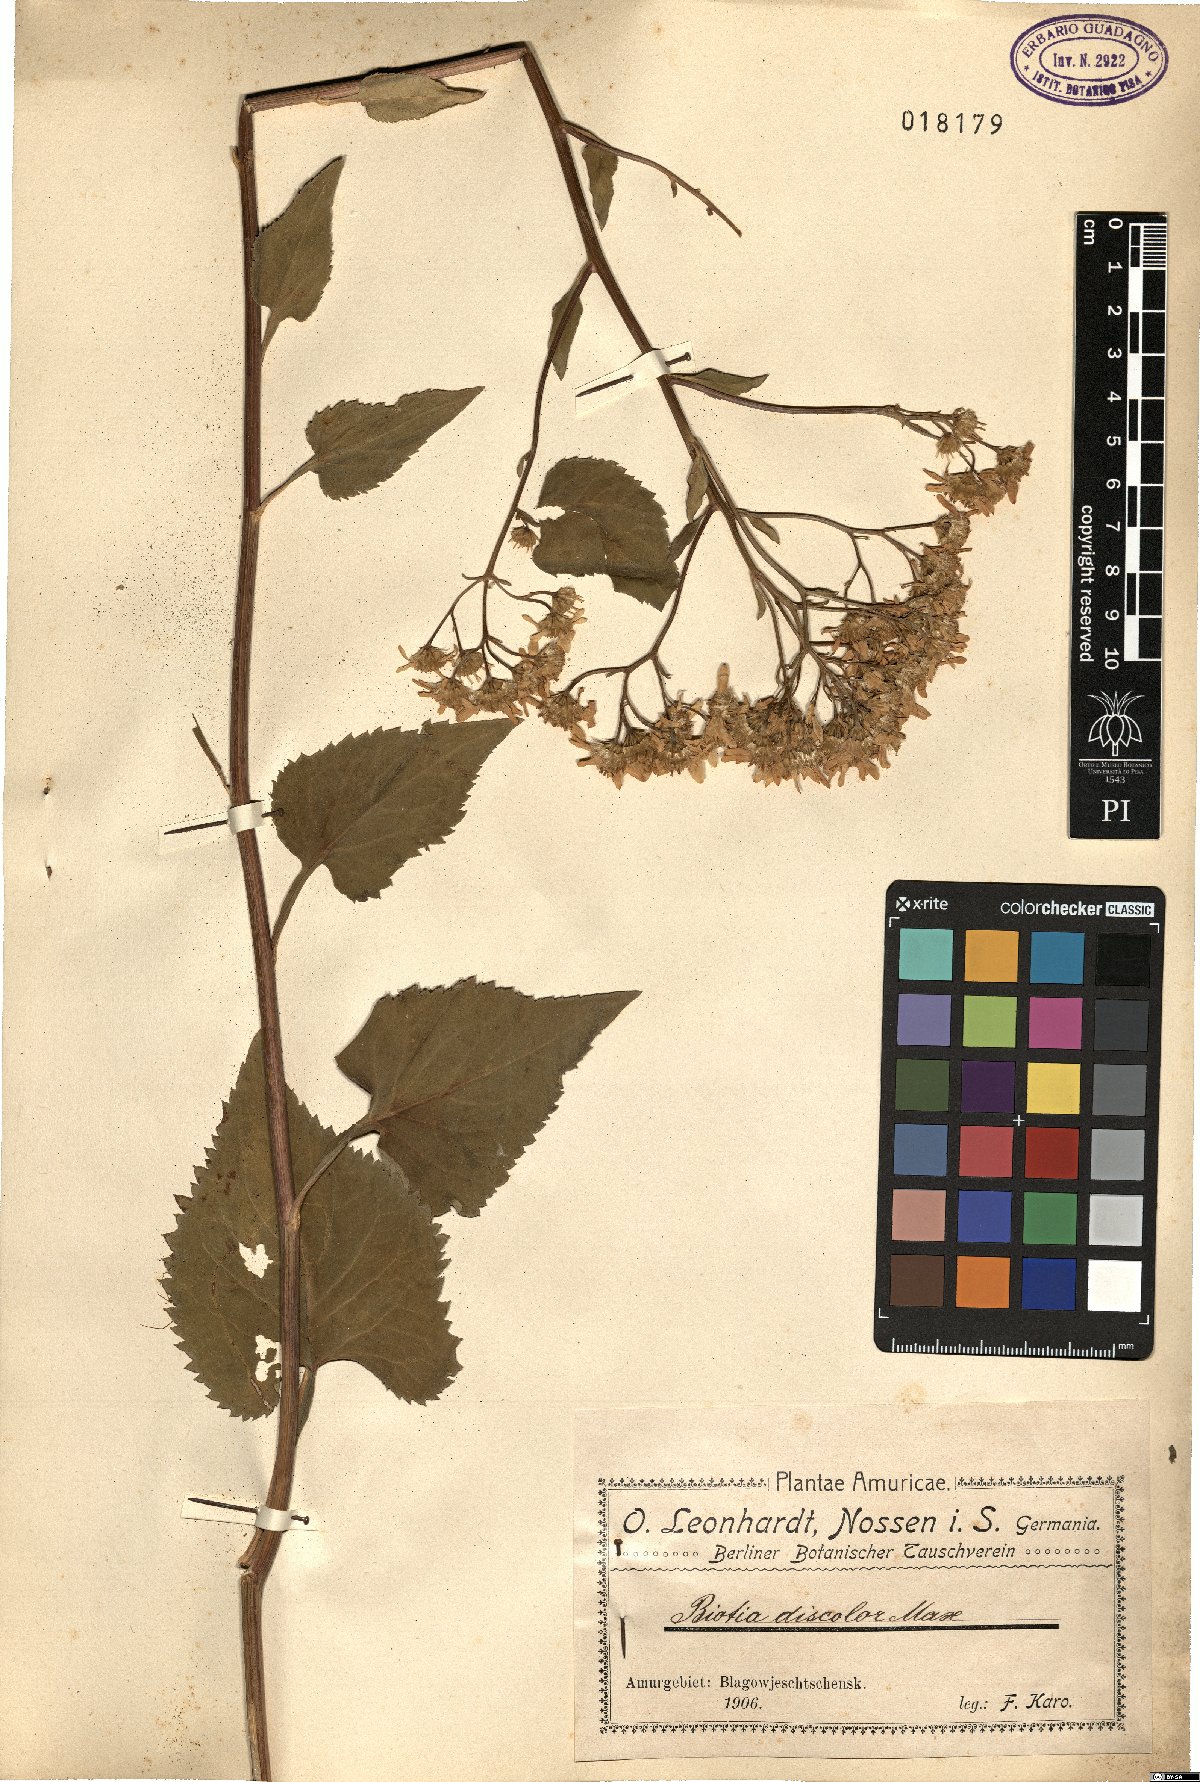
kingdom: Plantae
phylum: Tracheophyta
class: Magnoliopsida
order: Asterales
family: Asteraceae
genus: Cardiagyris
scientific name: Cardiagyris scabra
